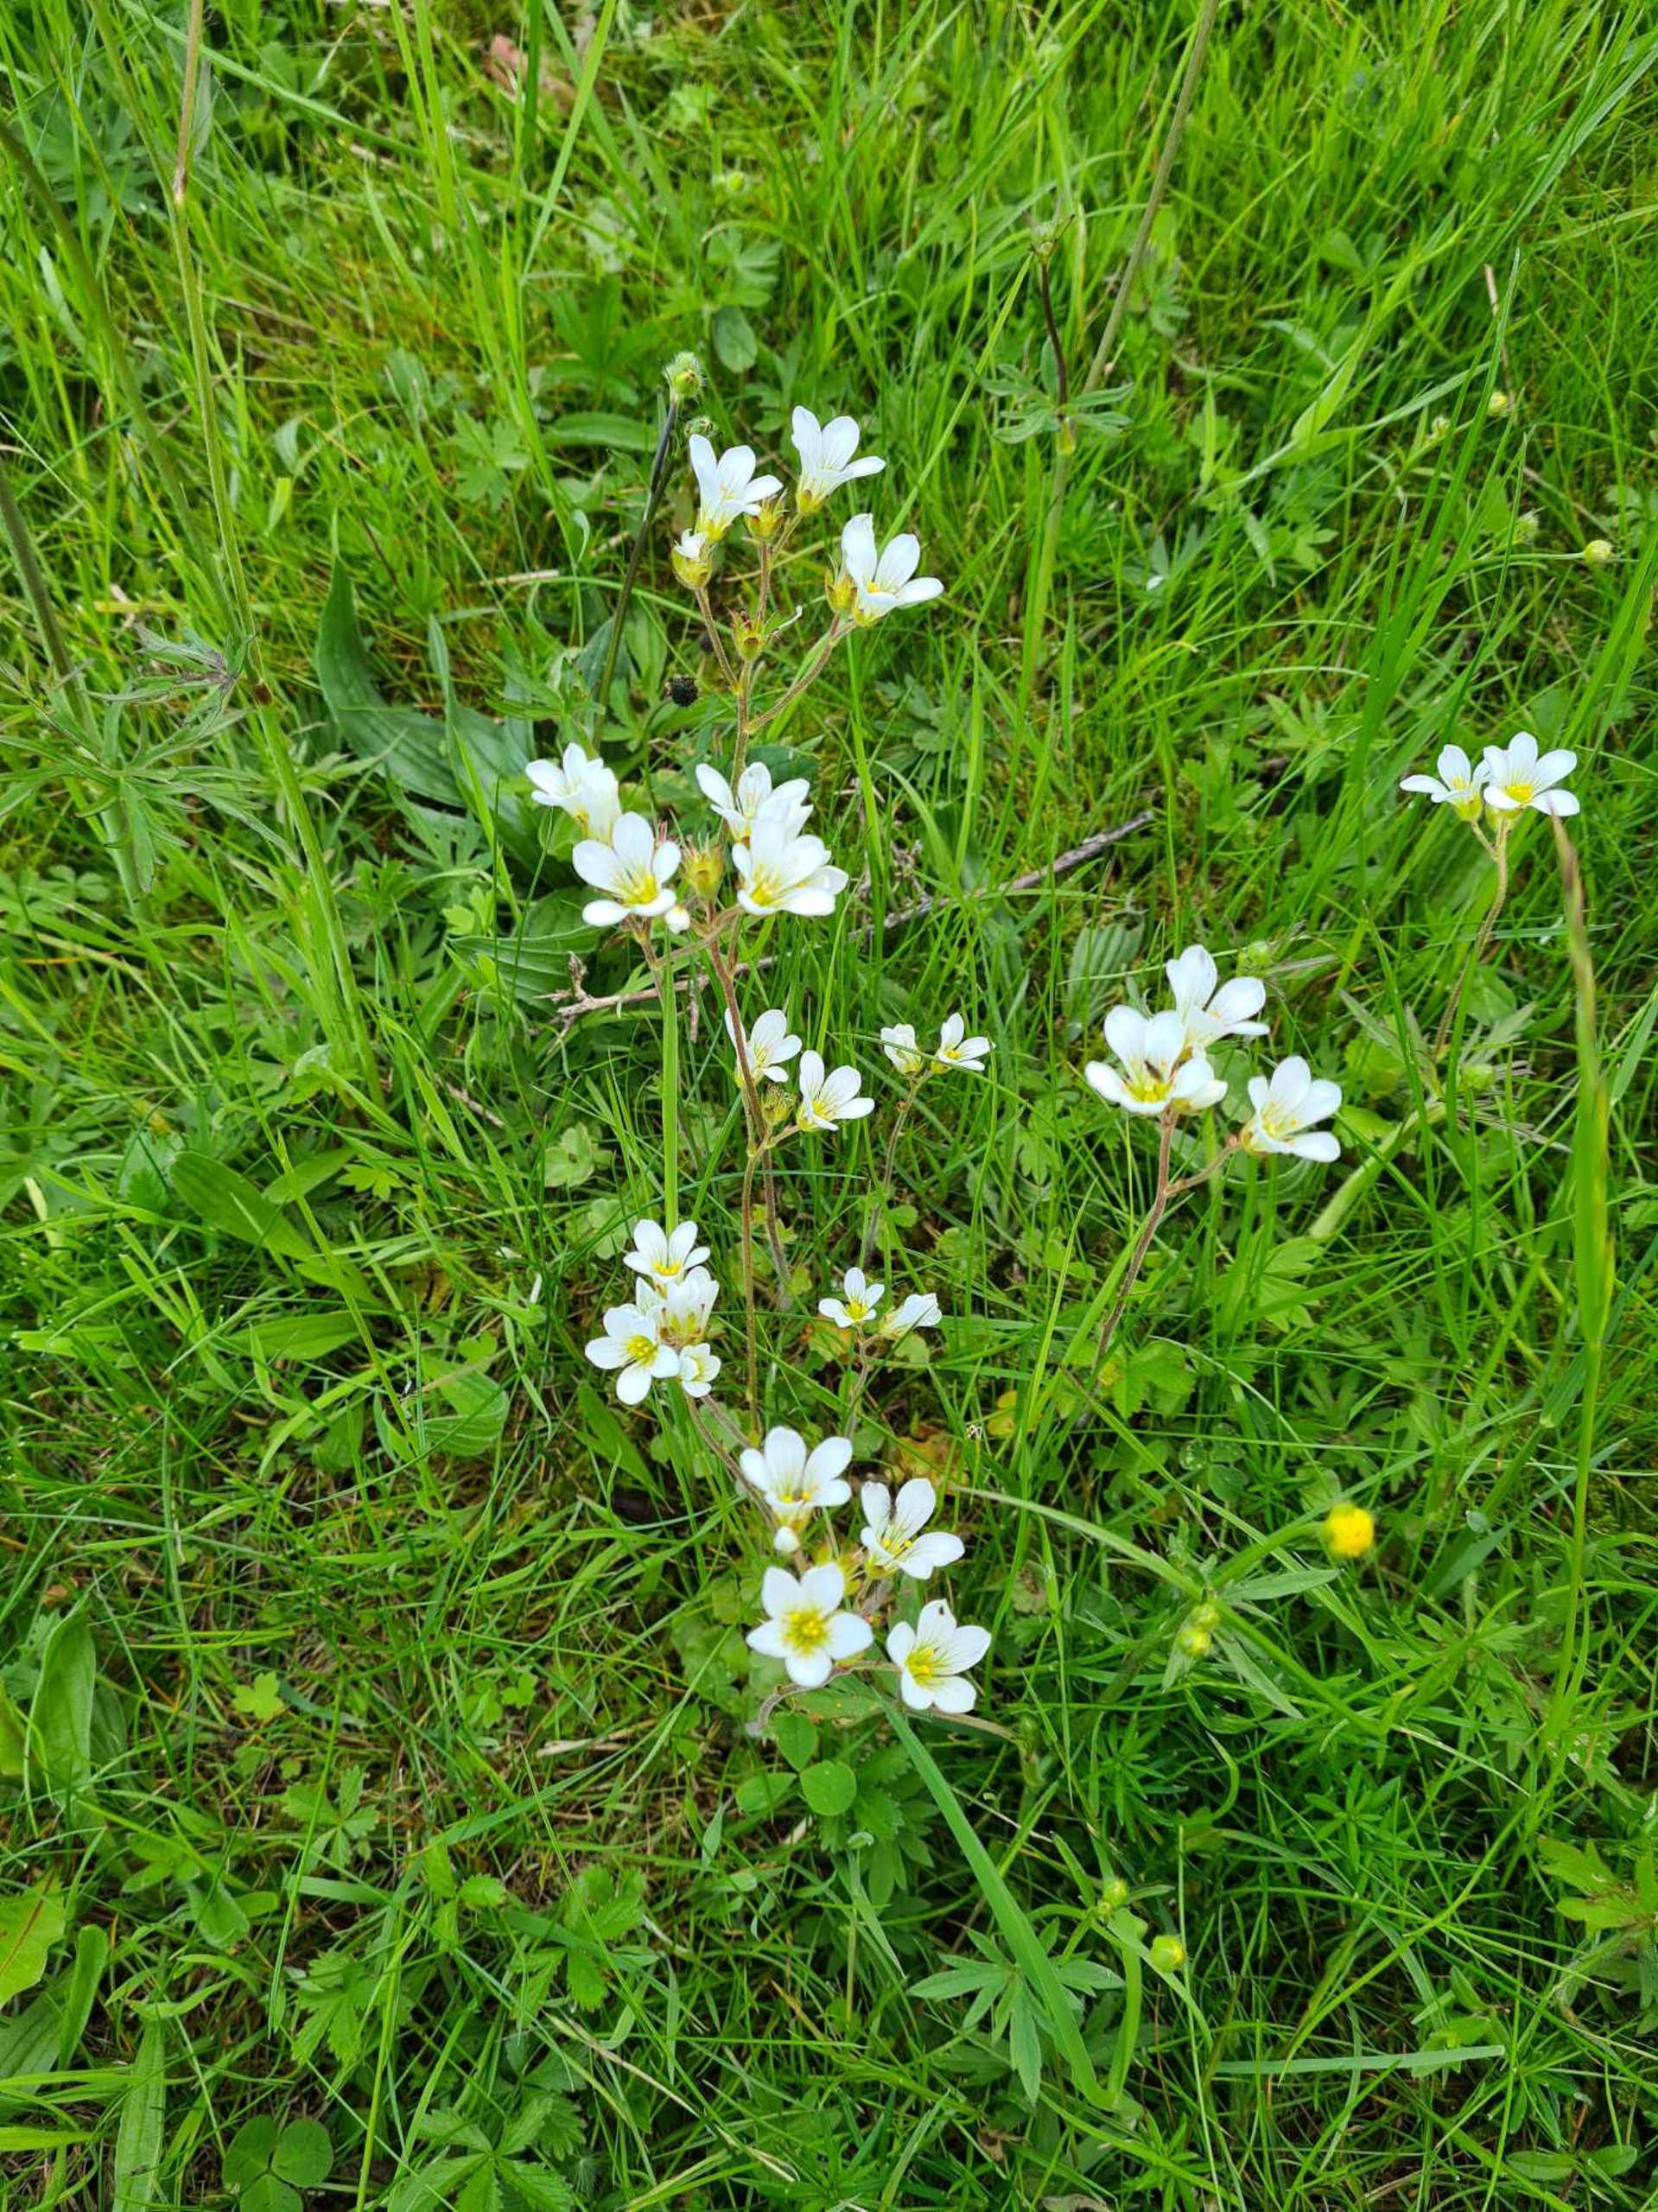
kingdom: Plantae
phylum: Tracheophyta
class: Magnoliopsida
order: Saxifragales
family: Saxifragaceae
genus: Saxifraga
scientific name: Saxifraga granulata
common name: Kornet stenbræk
